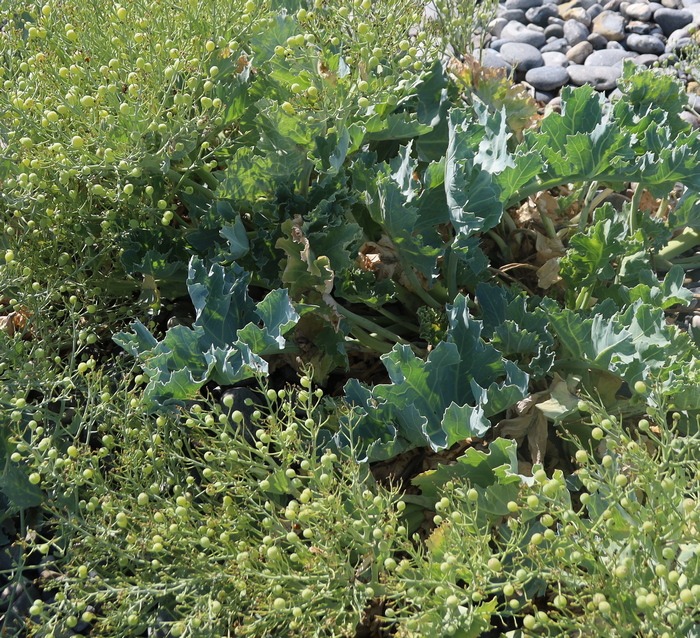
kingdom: Plantae
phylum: Tracheophyta
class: Magnoliopsida
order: Brassicales
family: Brassicaceae
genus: Crambe
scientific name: Crambe maritima
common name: Strandkål
